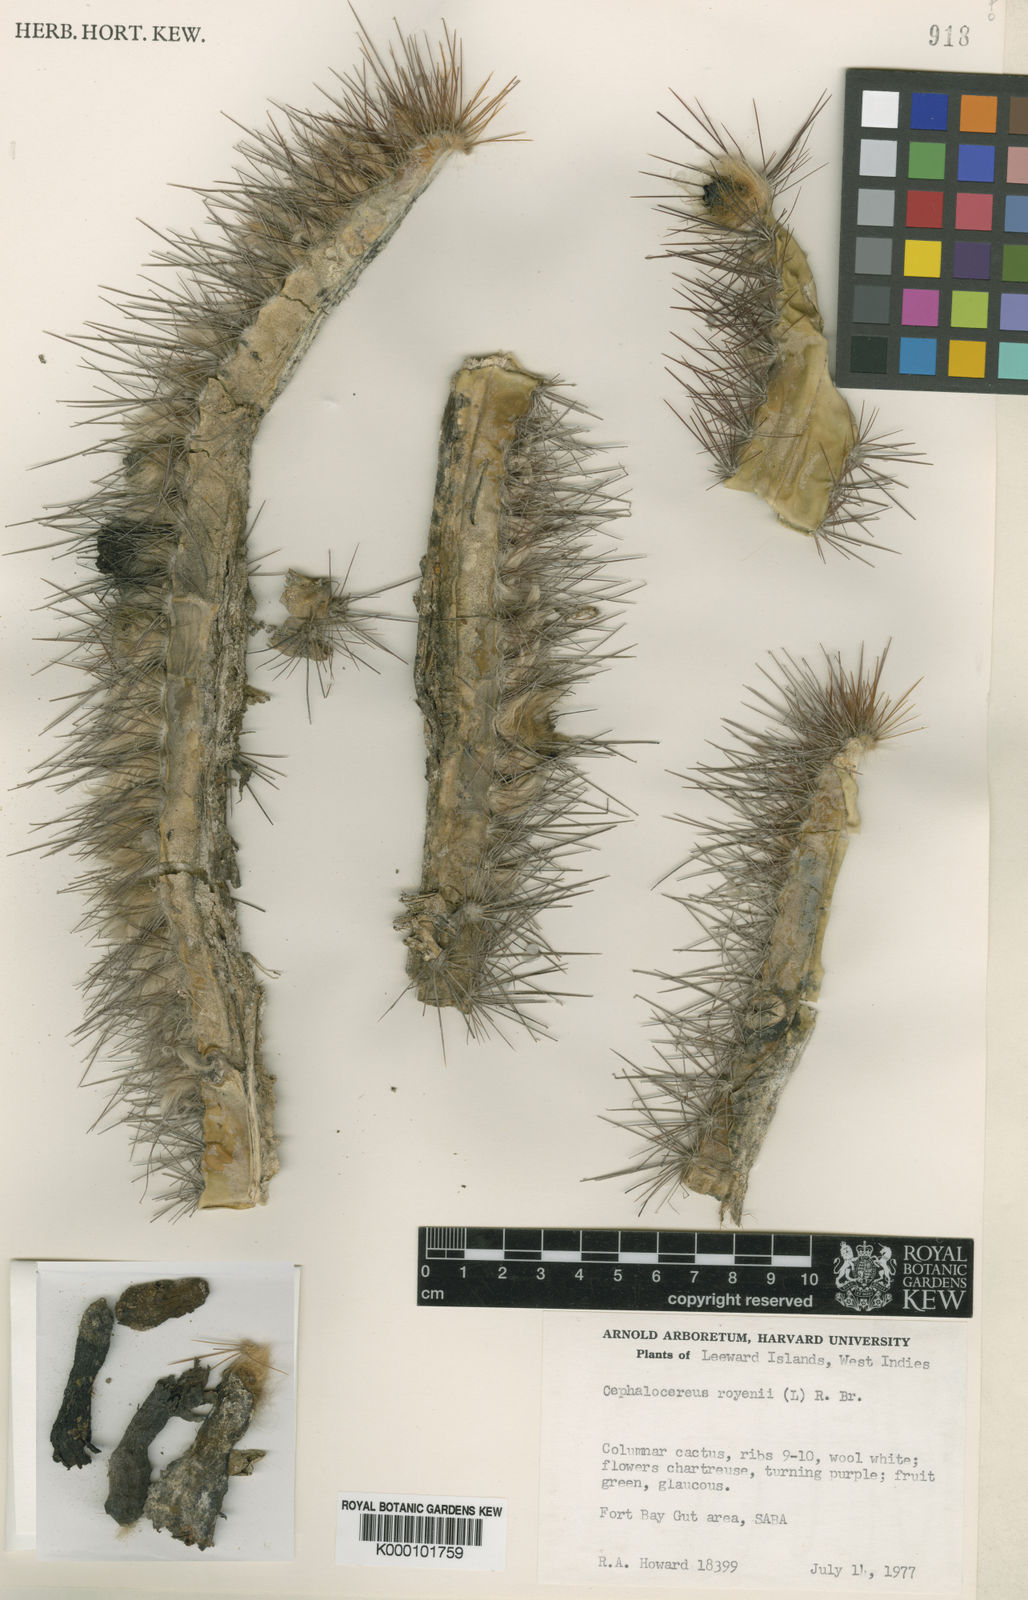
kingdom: Plantae
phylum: Tracheophyta
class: Magnoliopsida
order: Caryophyllales
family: Cactaceae
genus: Pilosocereus
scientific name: Pilosocereus polygonus
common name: Key tree cactus
